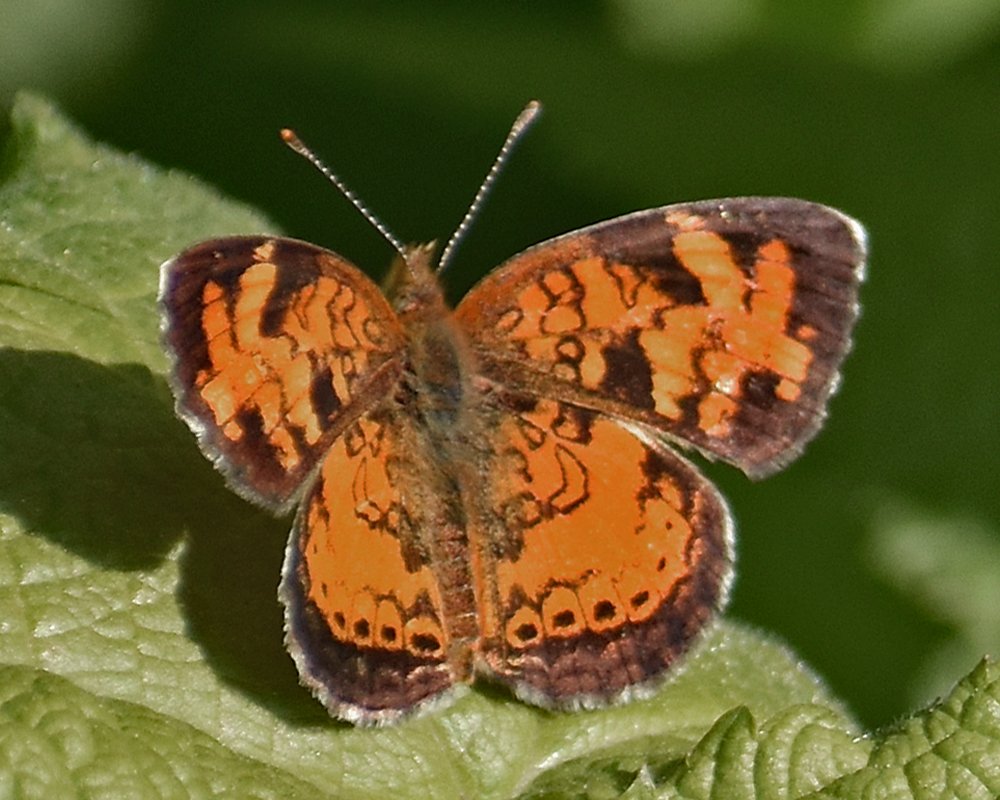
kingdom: Animalia
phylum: Arthropoda
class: Insecta
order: Lepidoptera
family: Nymphalidae
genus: Phyciodes
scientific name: Phyciodes tharos
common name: Northern Crescent
